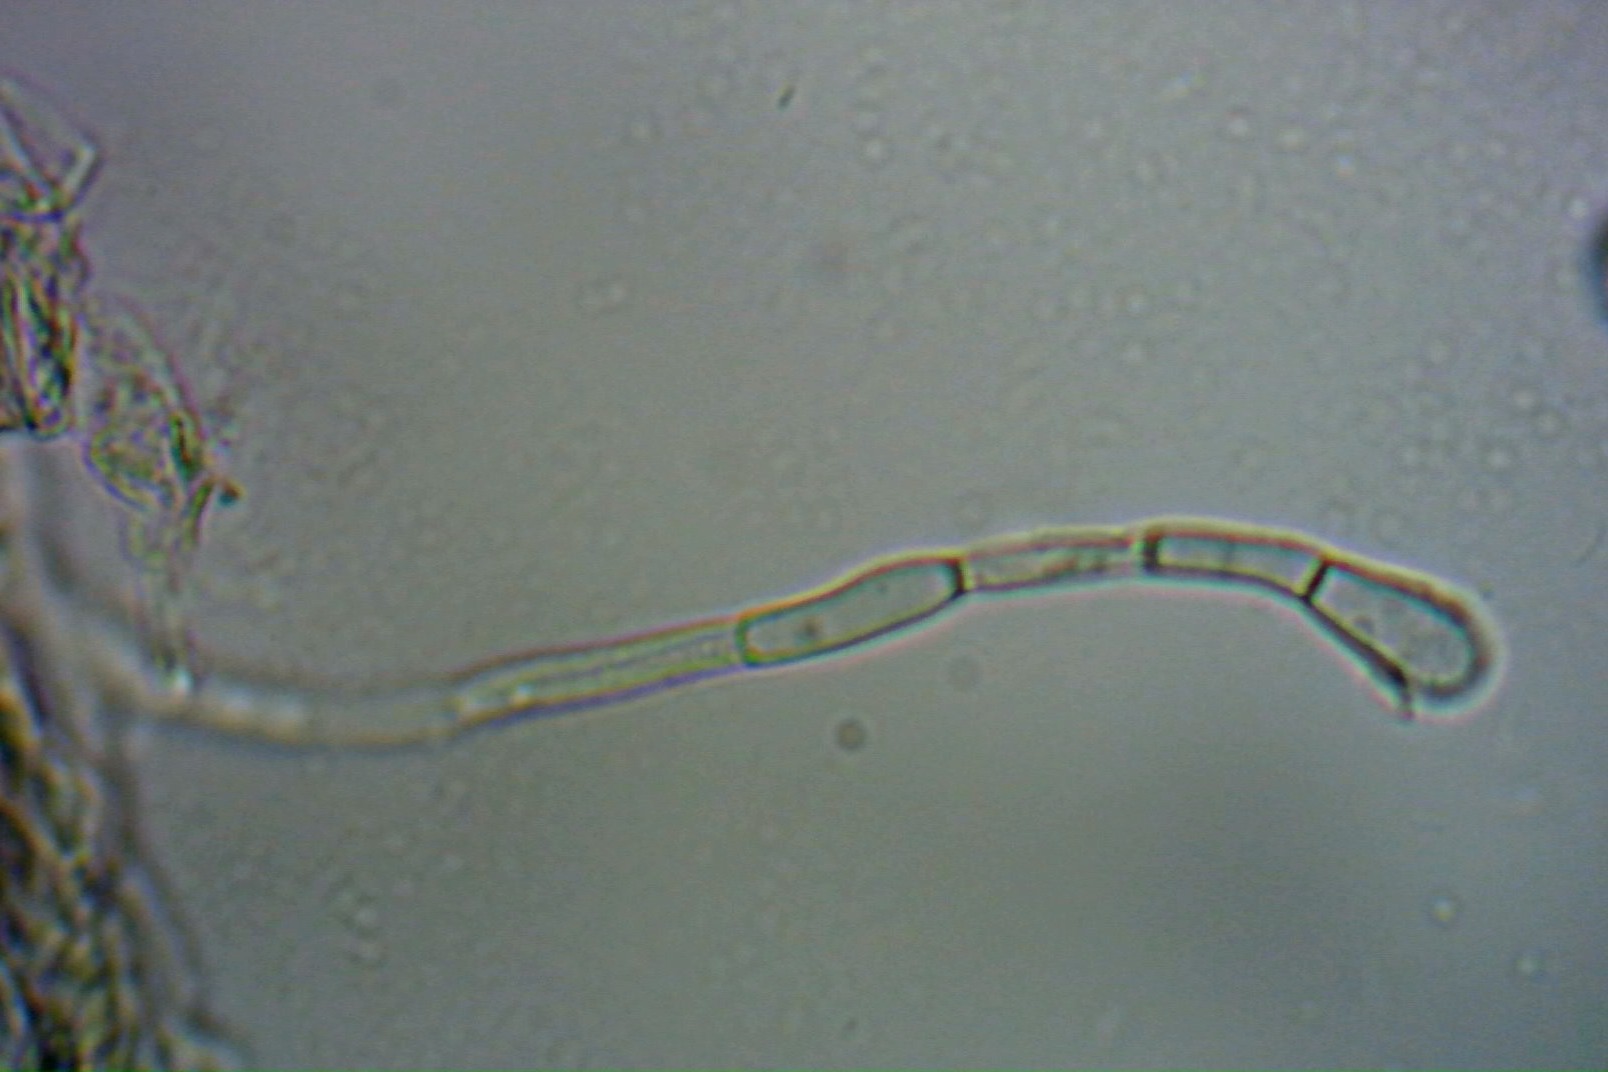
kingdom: Fungi
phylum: Ascomycota
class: Geoglossomycetes
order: Geoglossales
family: Geoglossaceae
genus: Geoglossum
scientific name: Geoglossum fallax
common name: småskællet jordtunge
